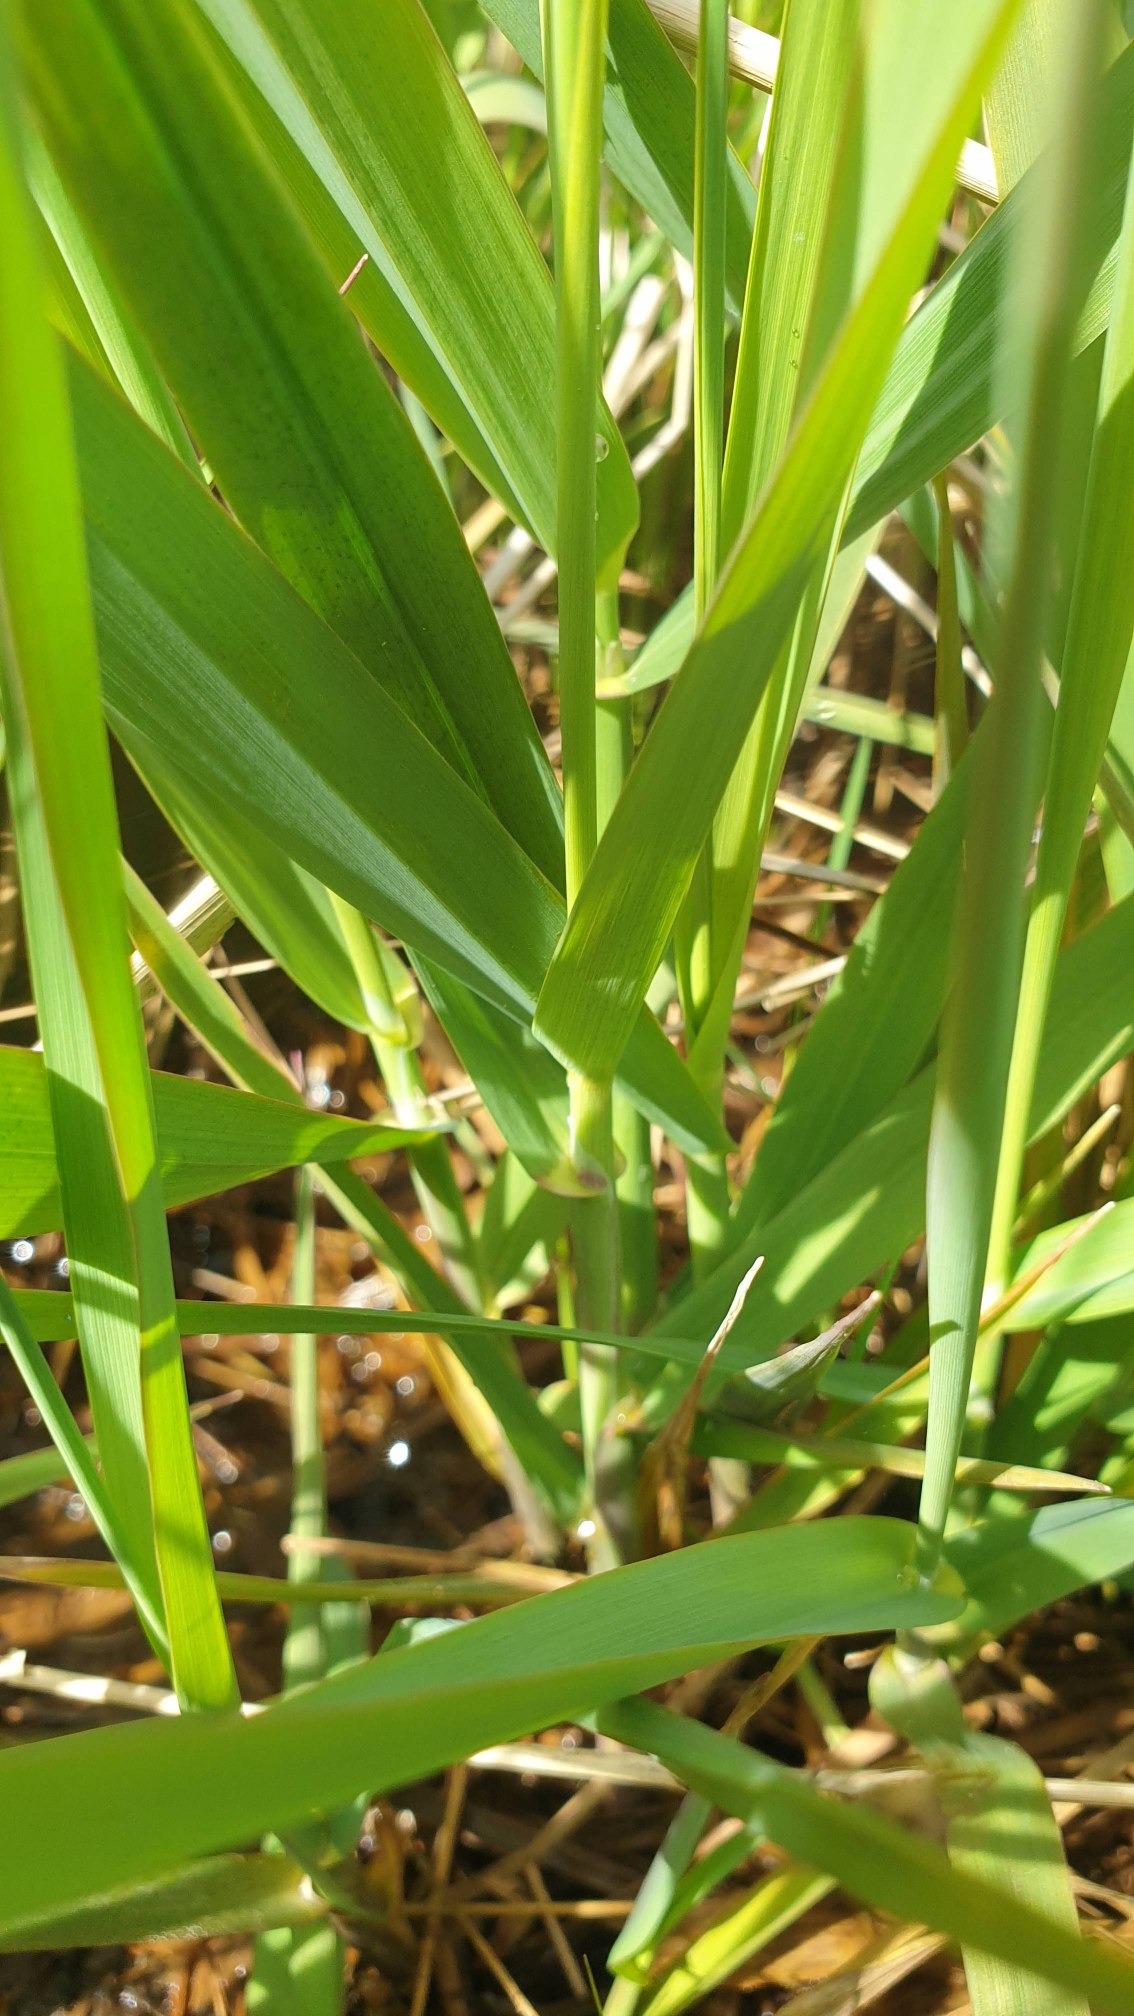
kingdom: Plantae
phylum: Tracheophyta
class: Liliopsida
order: Poales
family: Poaceae
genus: Phalaris
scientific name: Phalaris arundinacea
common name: Rørgræs
